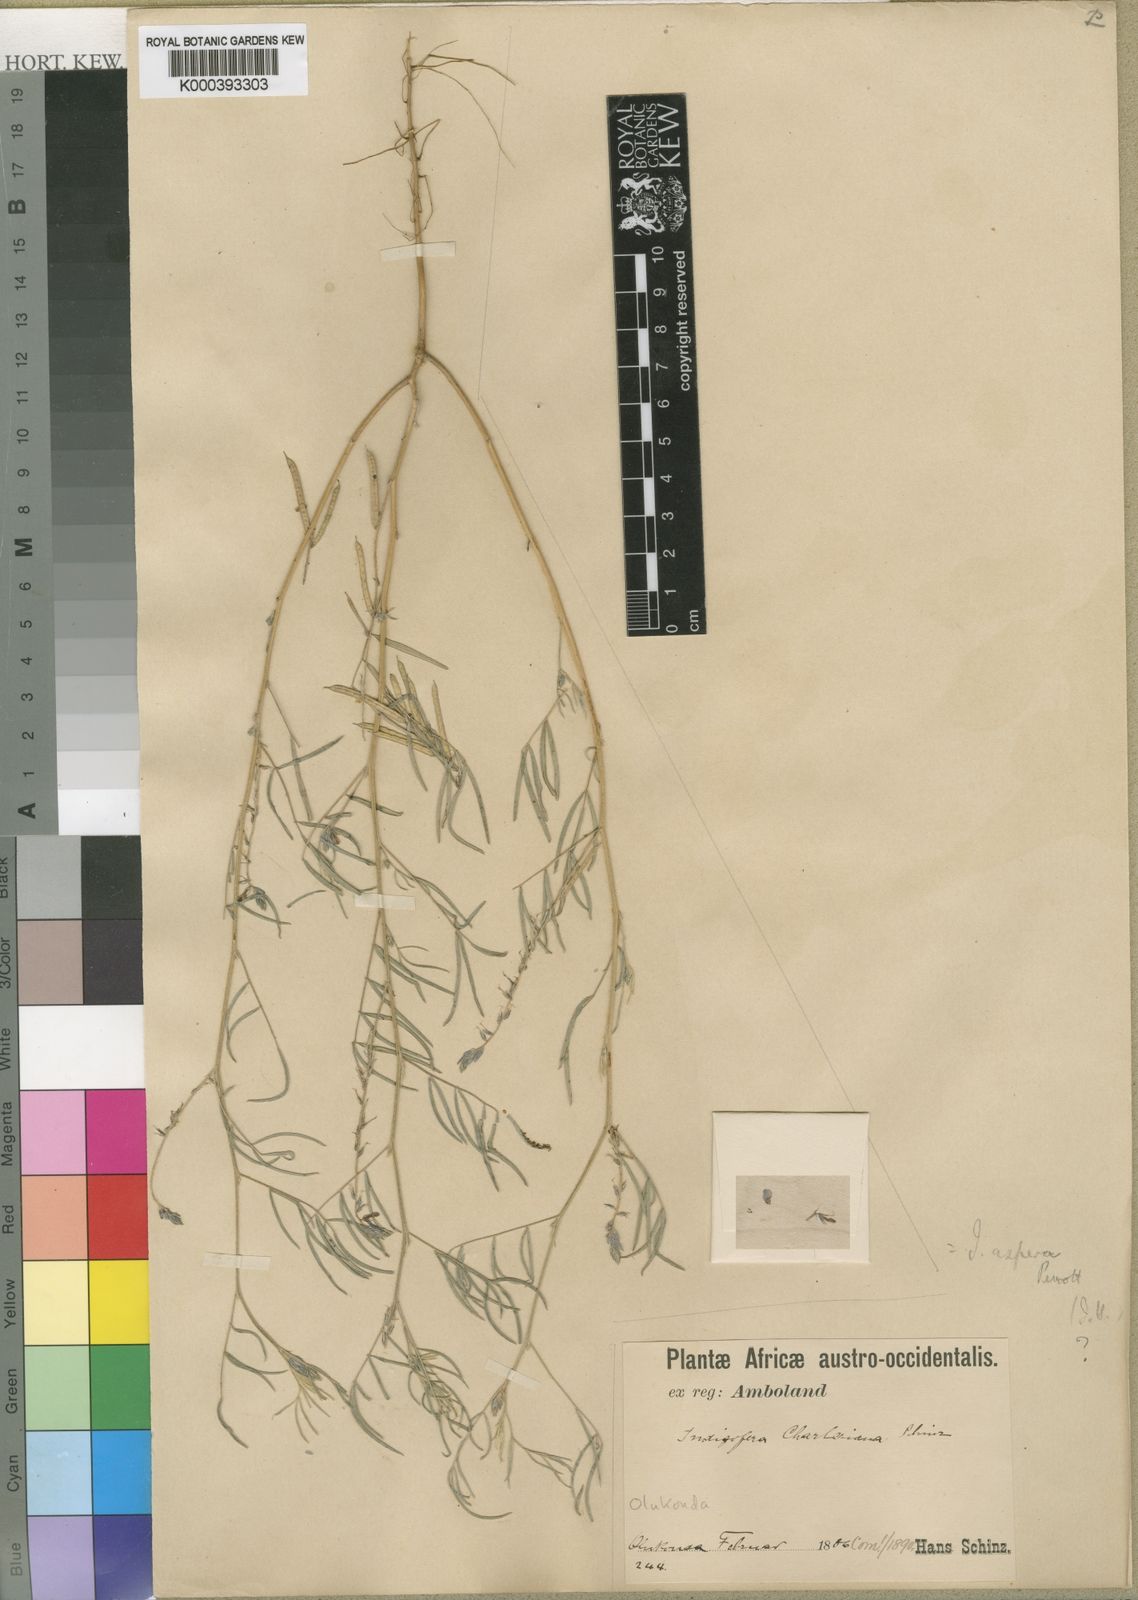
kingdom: Plantae
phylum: Tracheophyta
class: Magnoliopsida
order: Fabales
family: Fabaceae
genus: Indigofera
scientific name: Indigofera charlieriana
